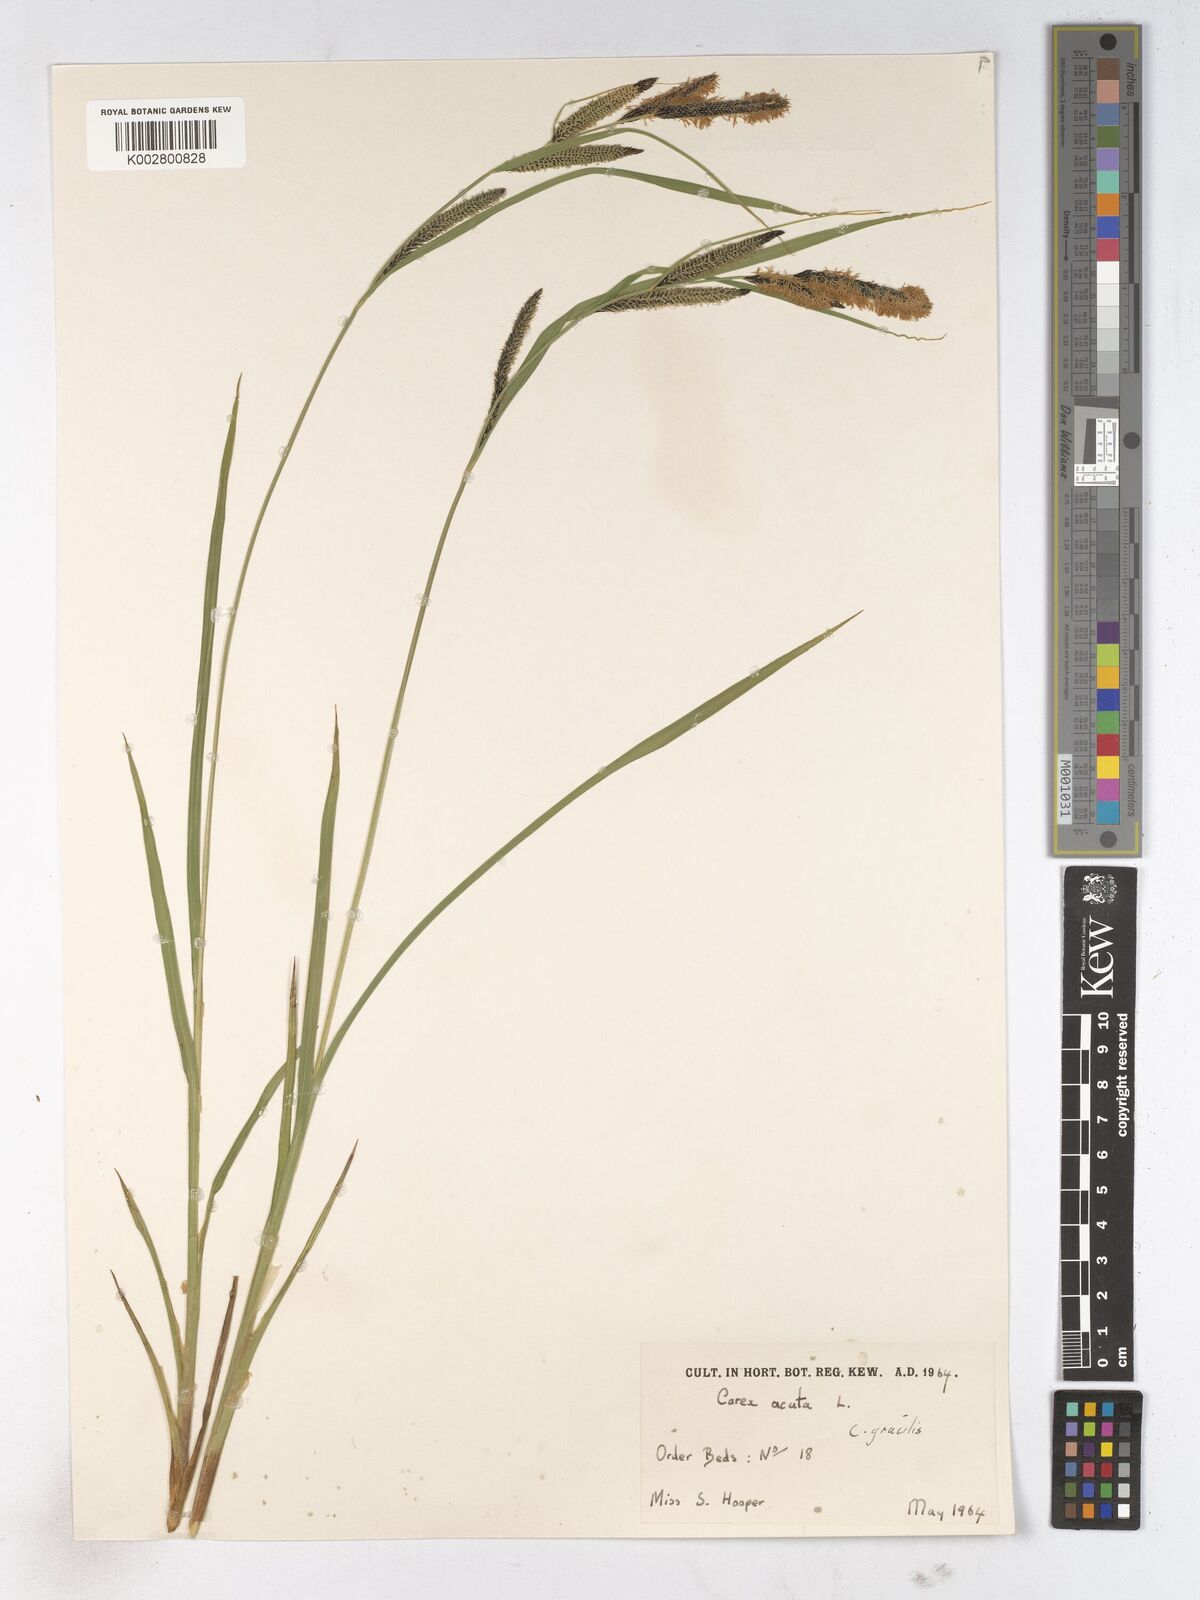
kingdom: Plantae
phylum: Tracheophyta
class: Liliopsida
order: Poales
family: Cyperaceae
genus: Carex
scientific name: Carex acuta
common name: Slender tufted-sedge
